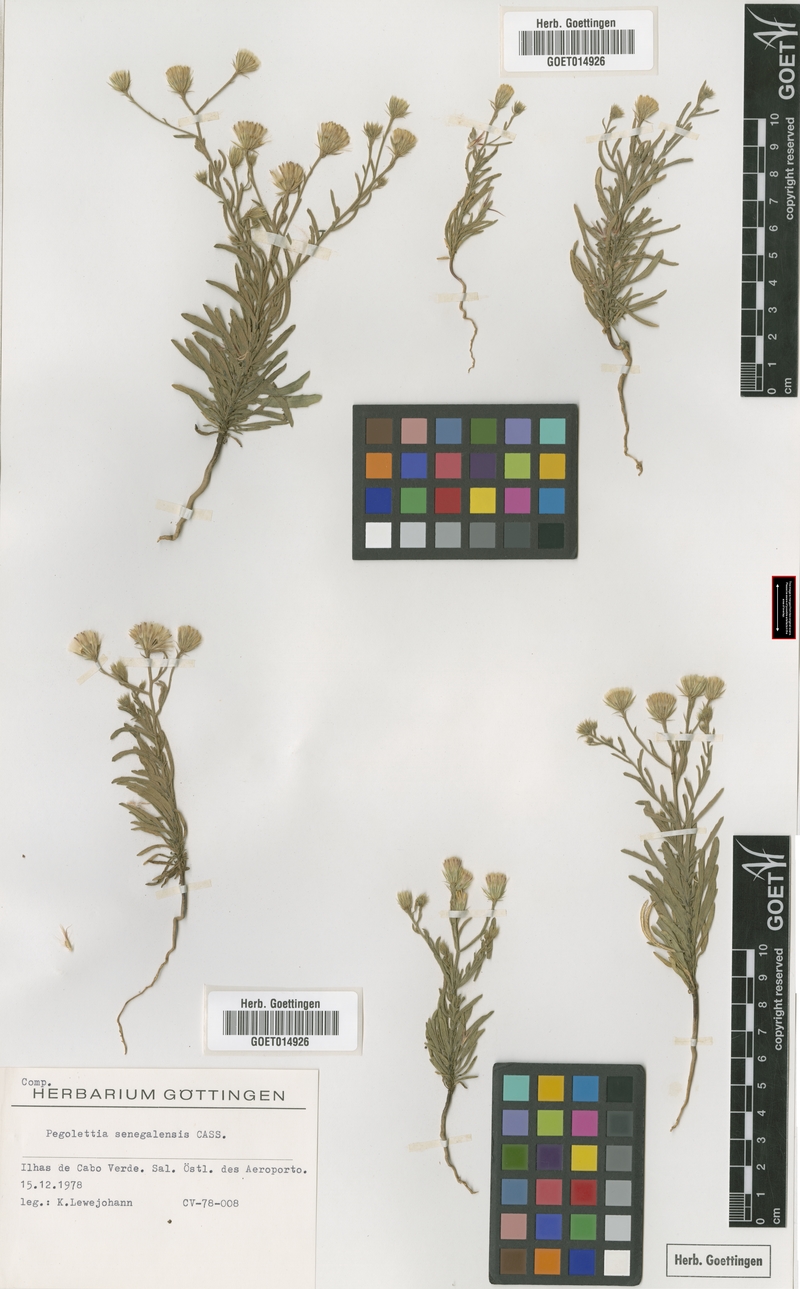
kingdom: Plantae
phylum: Tracheophyta
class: Magnoliopsida
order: Asterales
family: Asteraceae
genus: Pegolettia
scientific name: Pegolettia senegalensis
